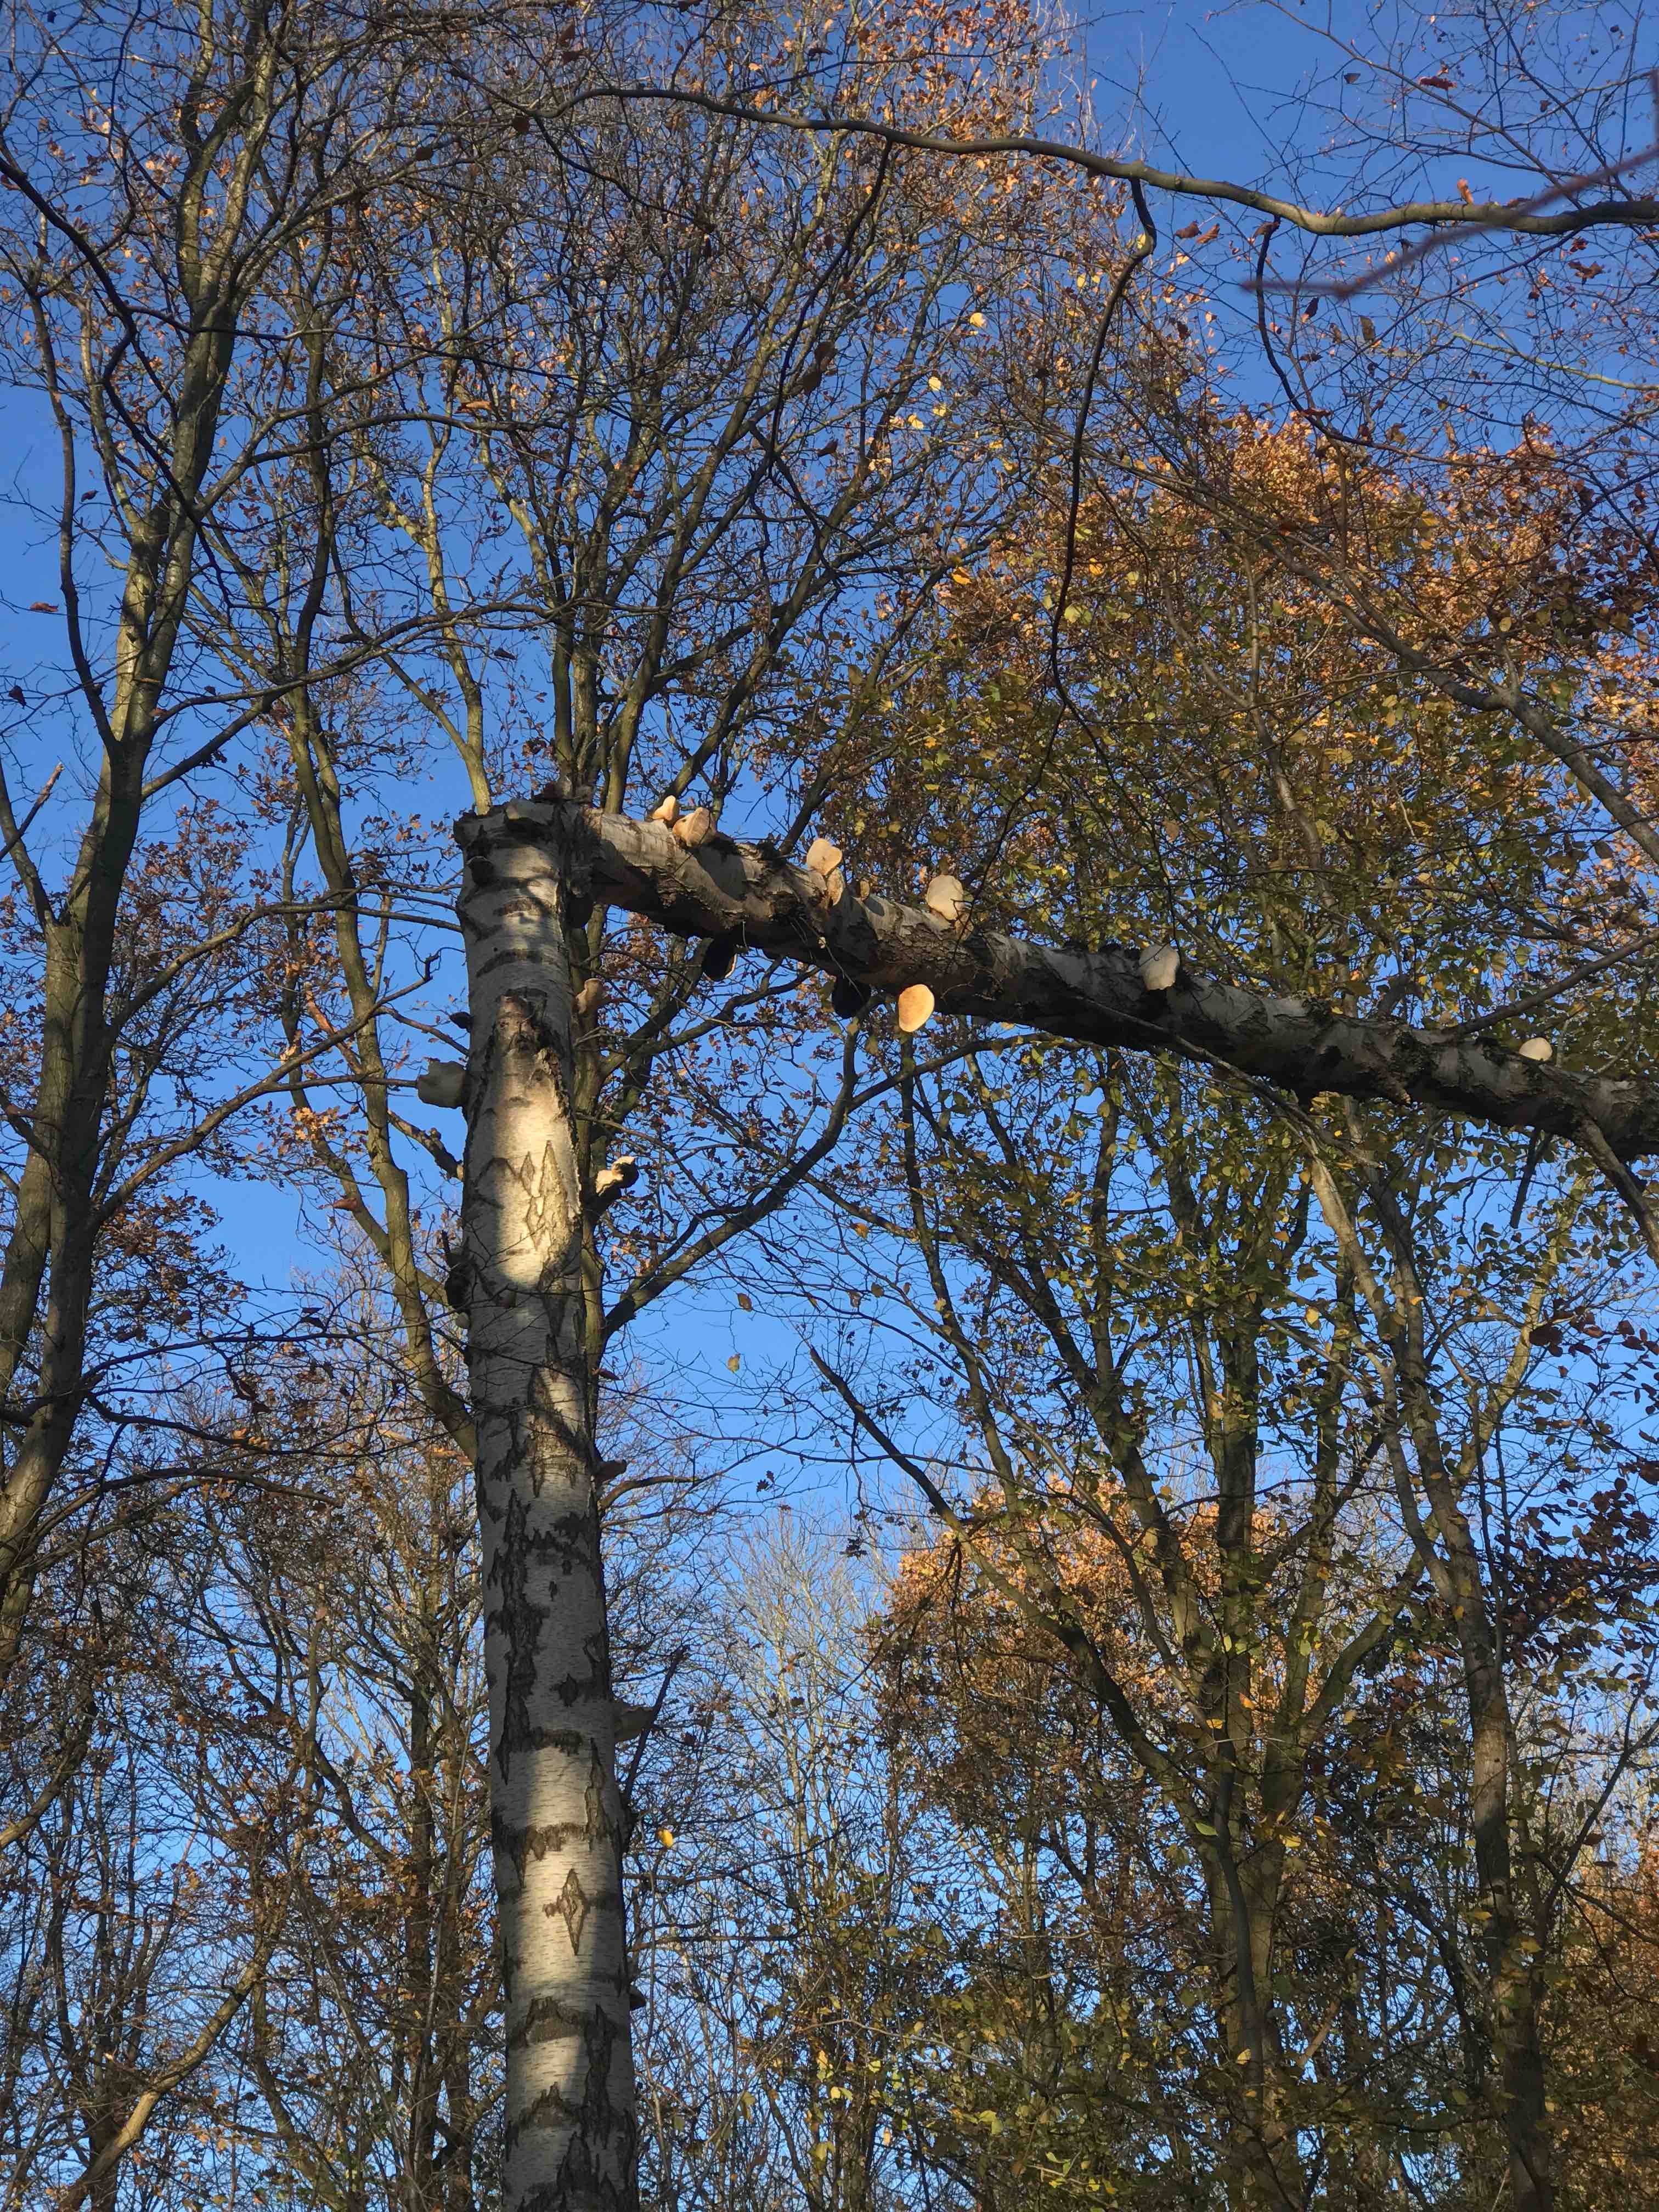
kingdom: Fungi
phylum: Basidiomycota
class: Agaricomycetes
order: Polyporales
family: Fomitopsidaceae
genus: Fomitopsis
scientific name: Fomitopsis betulina
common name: birkeporesvamp
